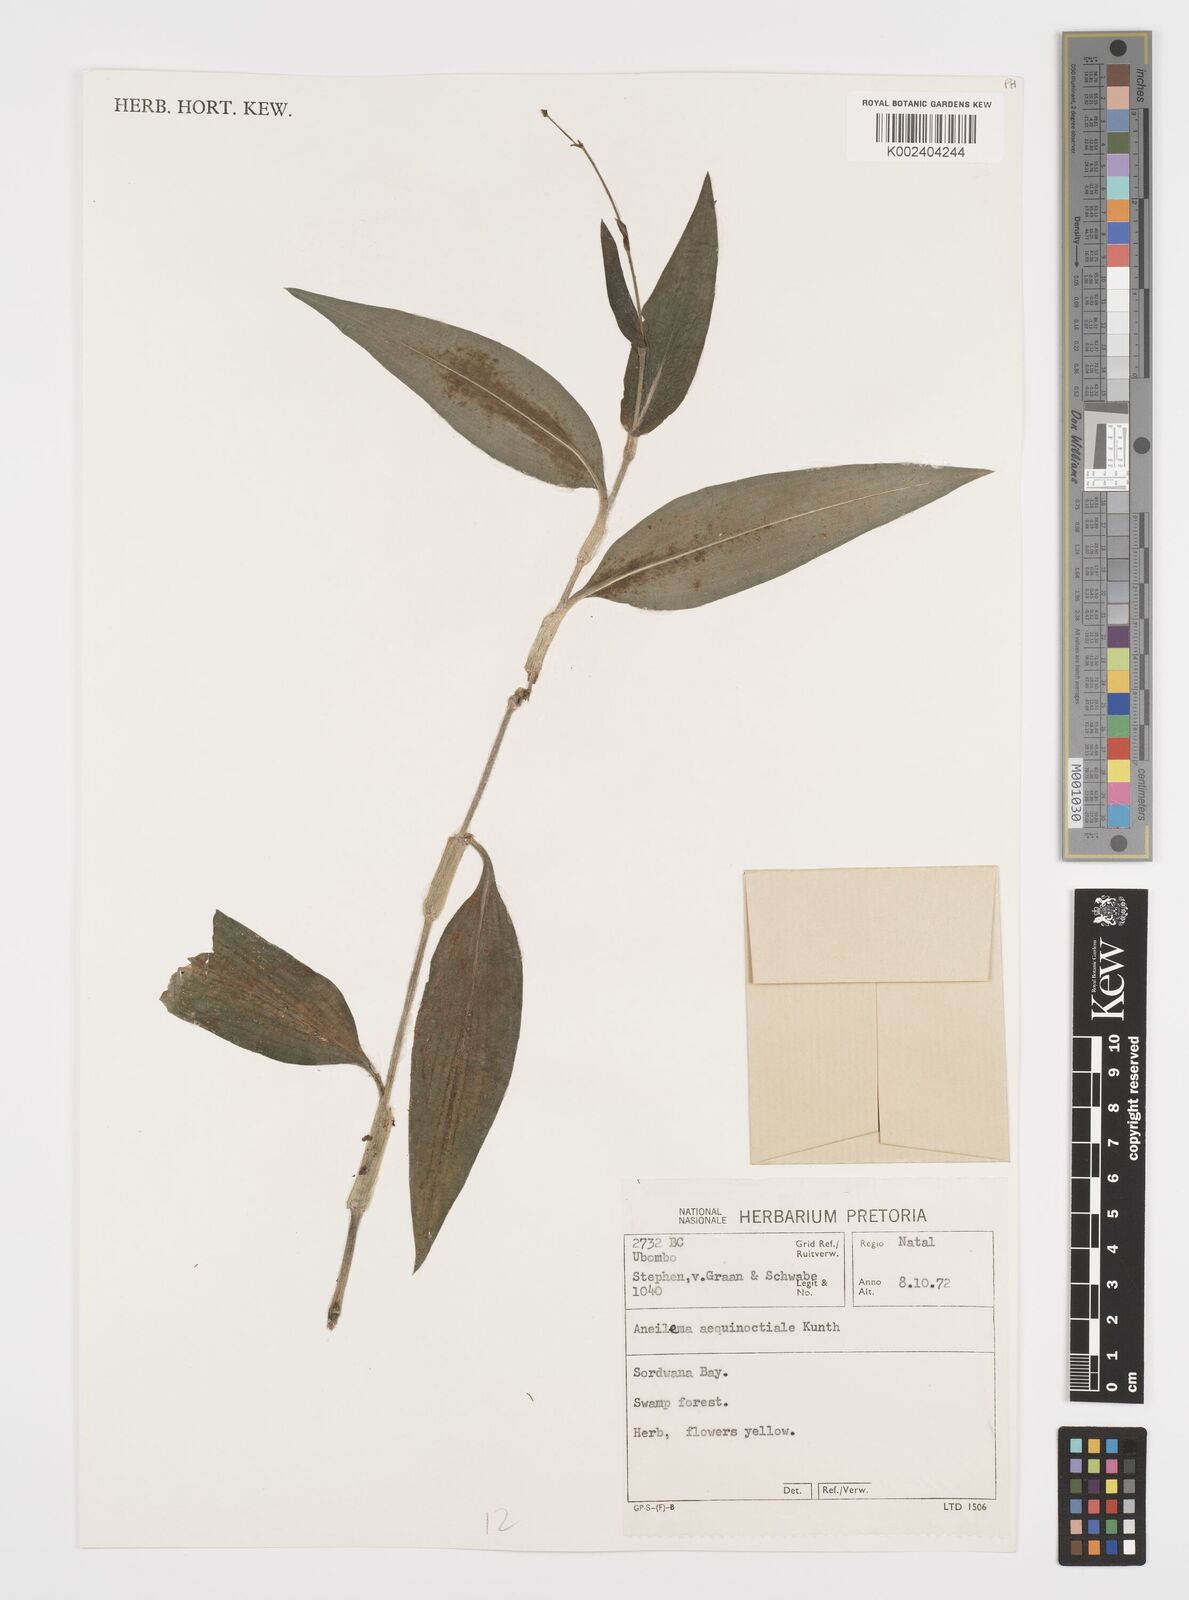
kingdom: Plantae
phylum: Tracheophyta
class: Liliopsida
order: Commelinales
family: Commelinaceae
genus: Aneilema
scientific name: Aneilema aequinoctiale
